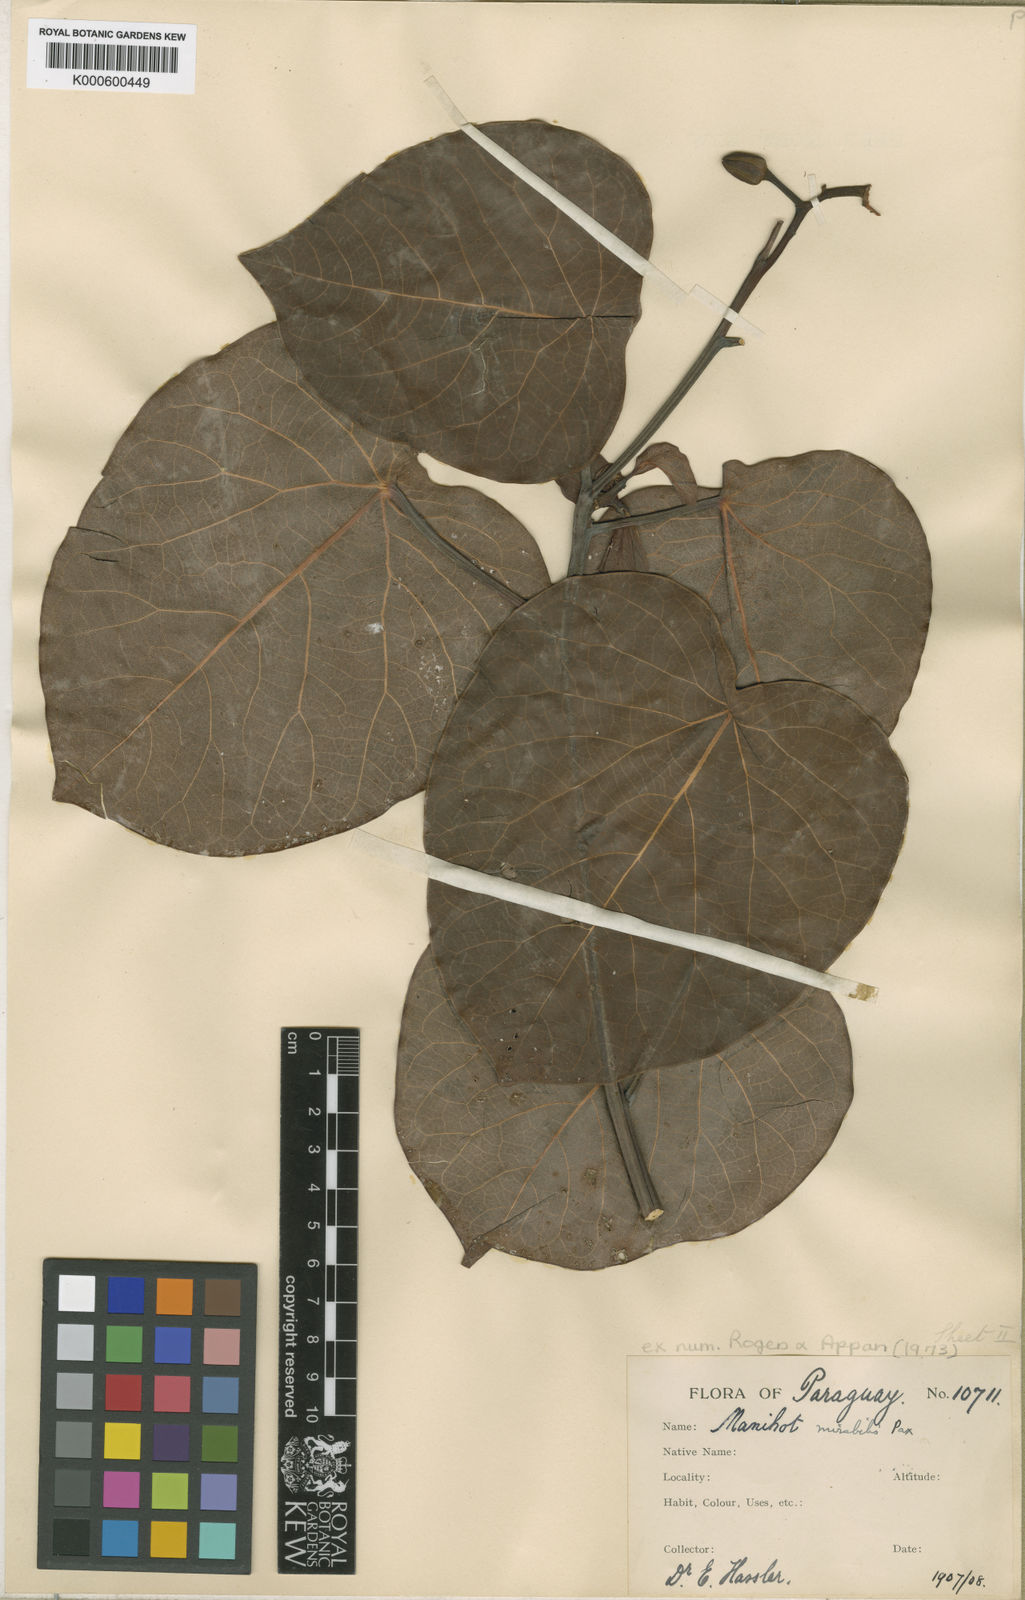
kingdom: Plantae
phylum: Tracheophyta
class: Magnoliopsida
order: Malpighiales
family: Euphorbiaceae
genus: Manihot
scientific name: Manihot mirabilis
